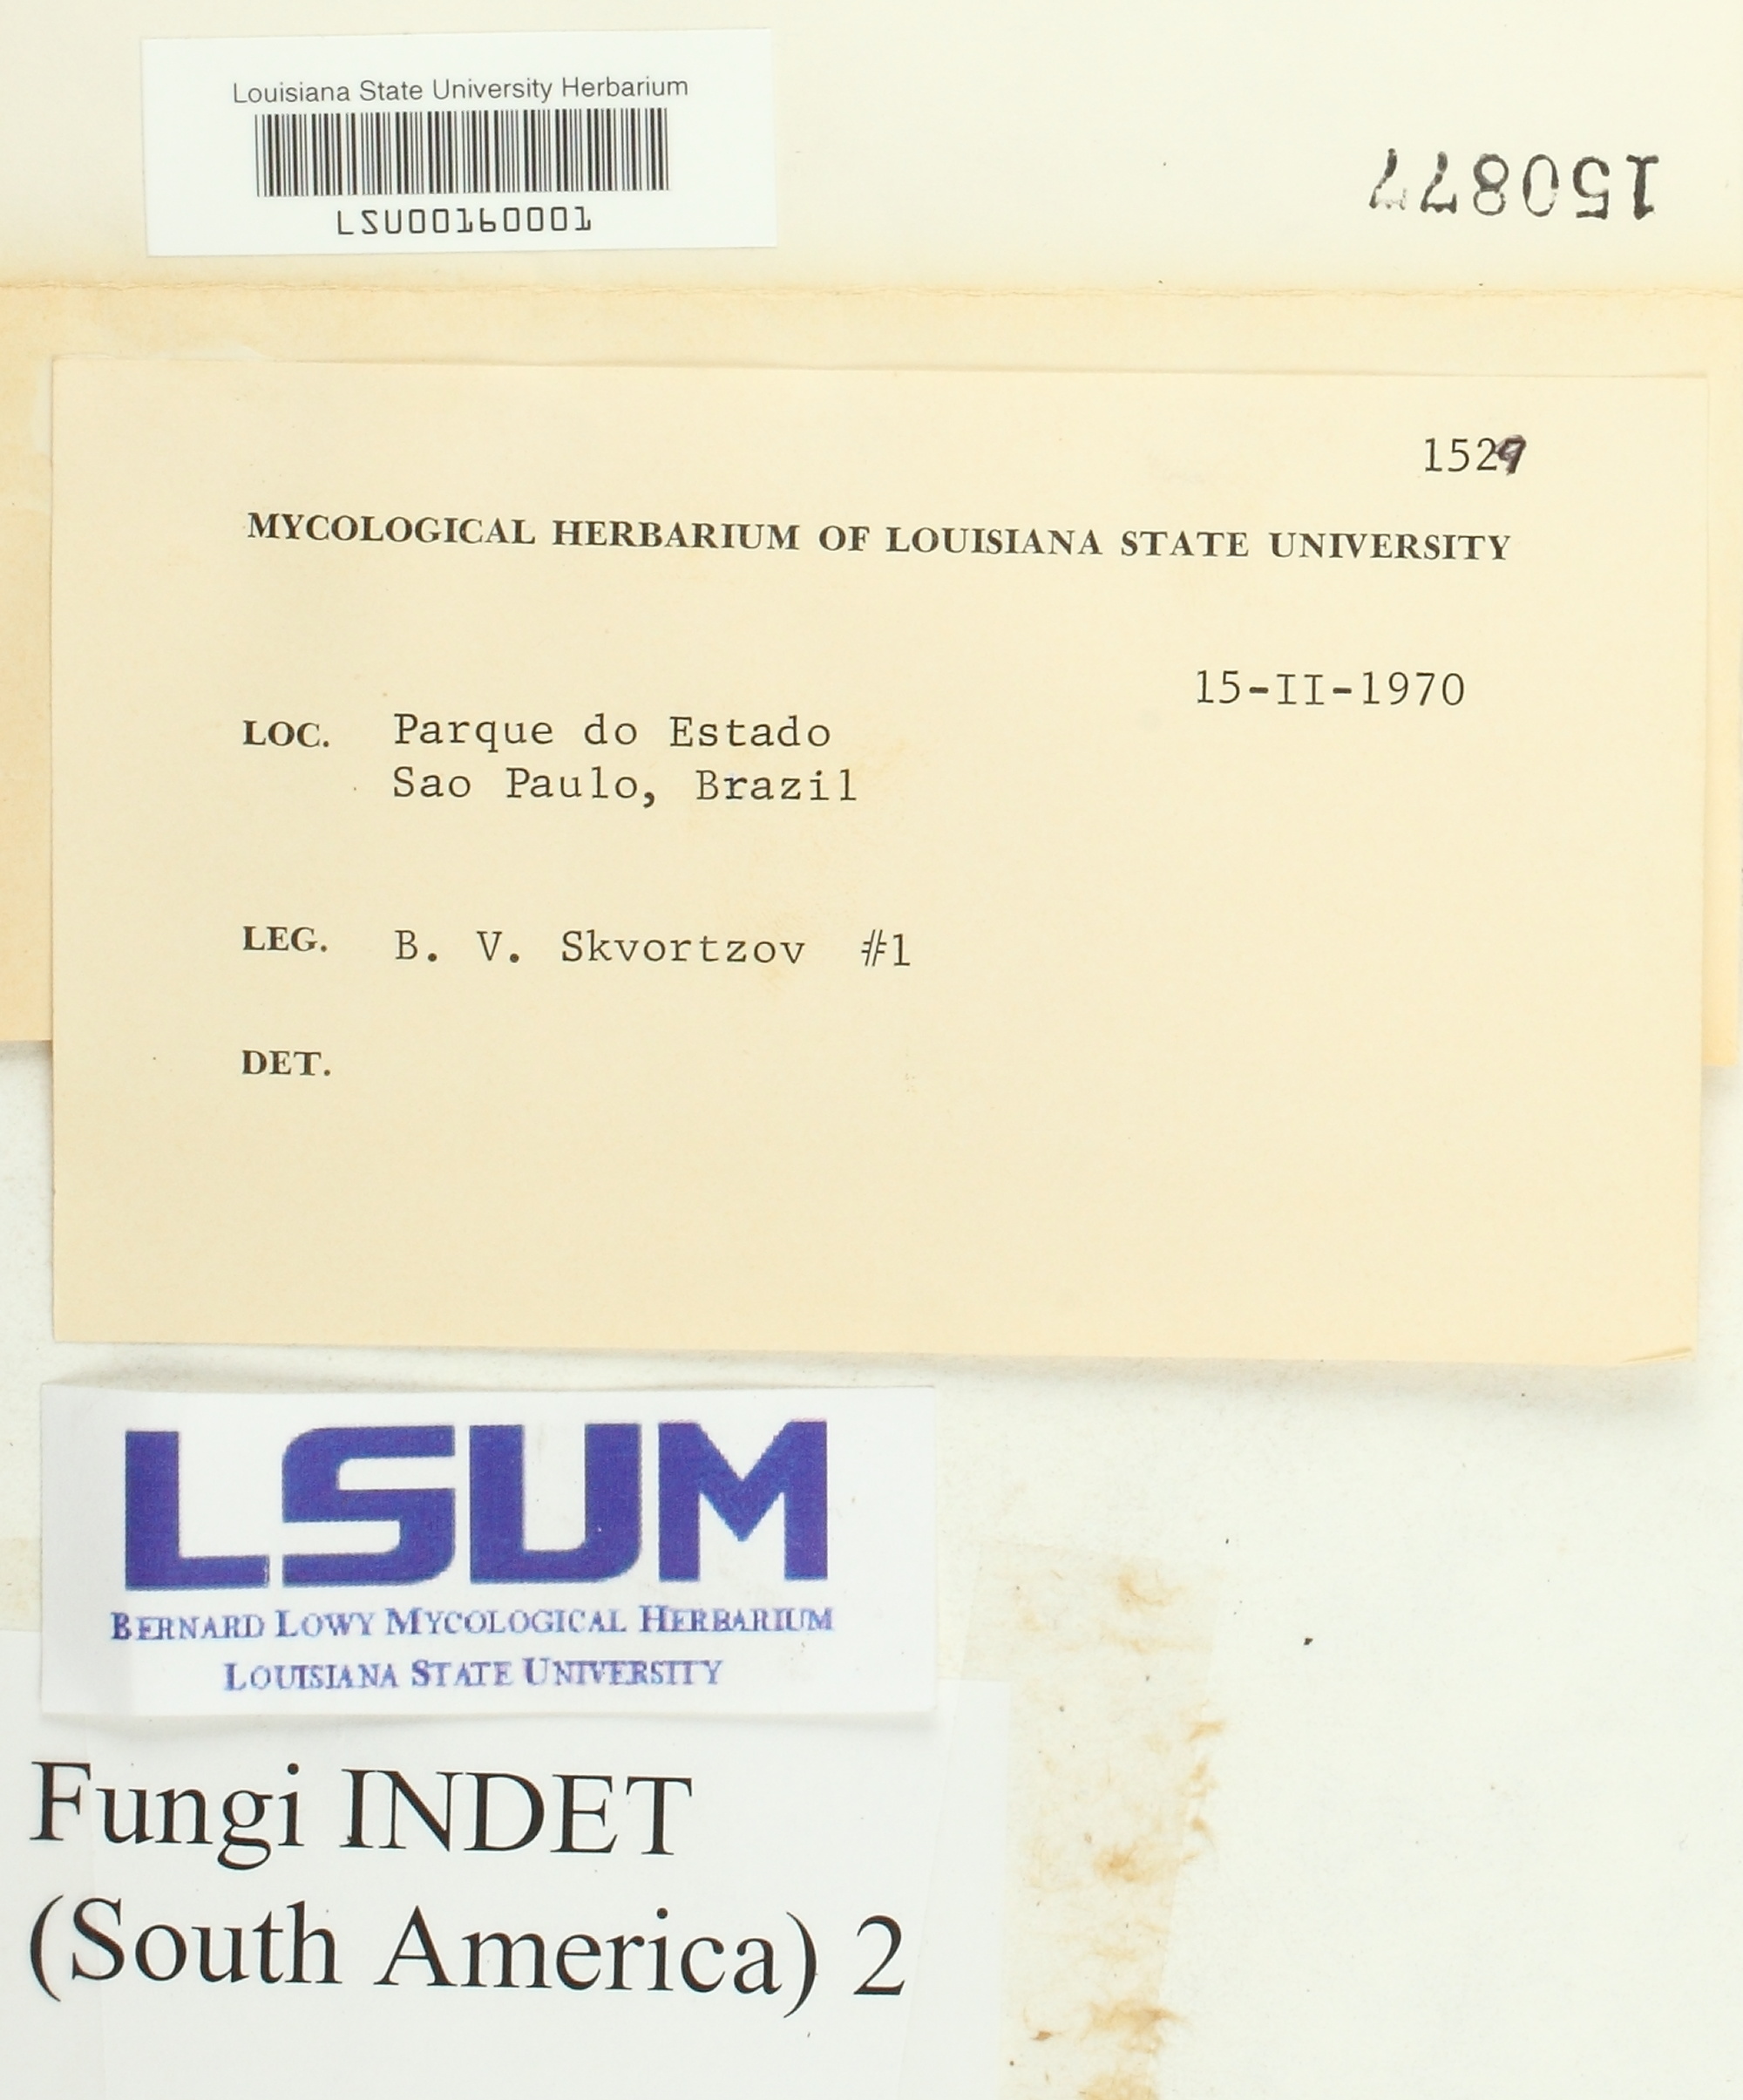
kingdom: Fungi
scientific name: Fungi
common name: Fungi
